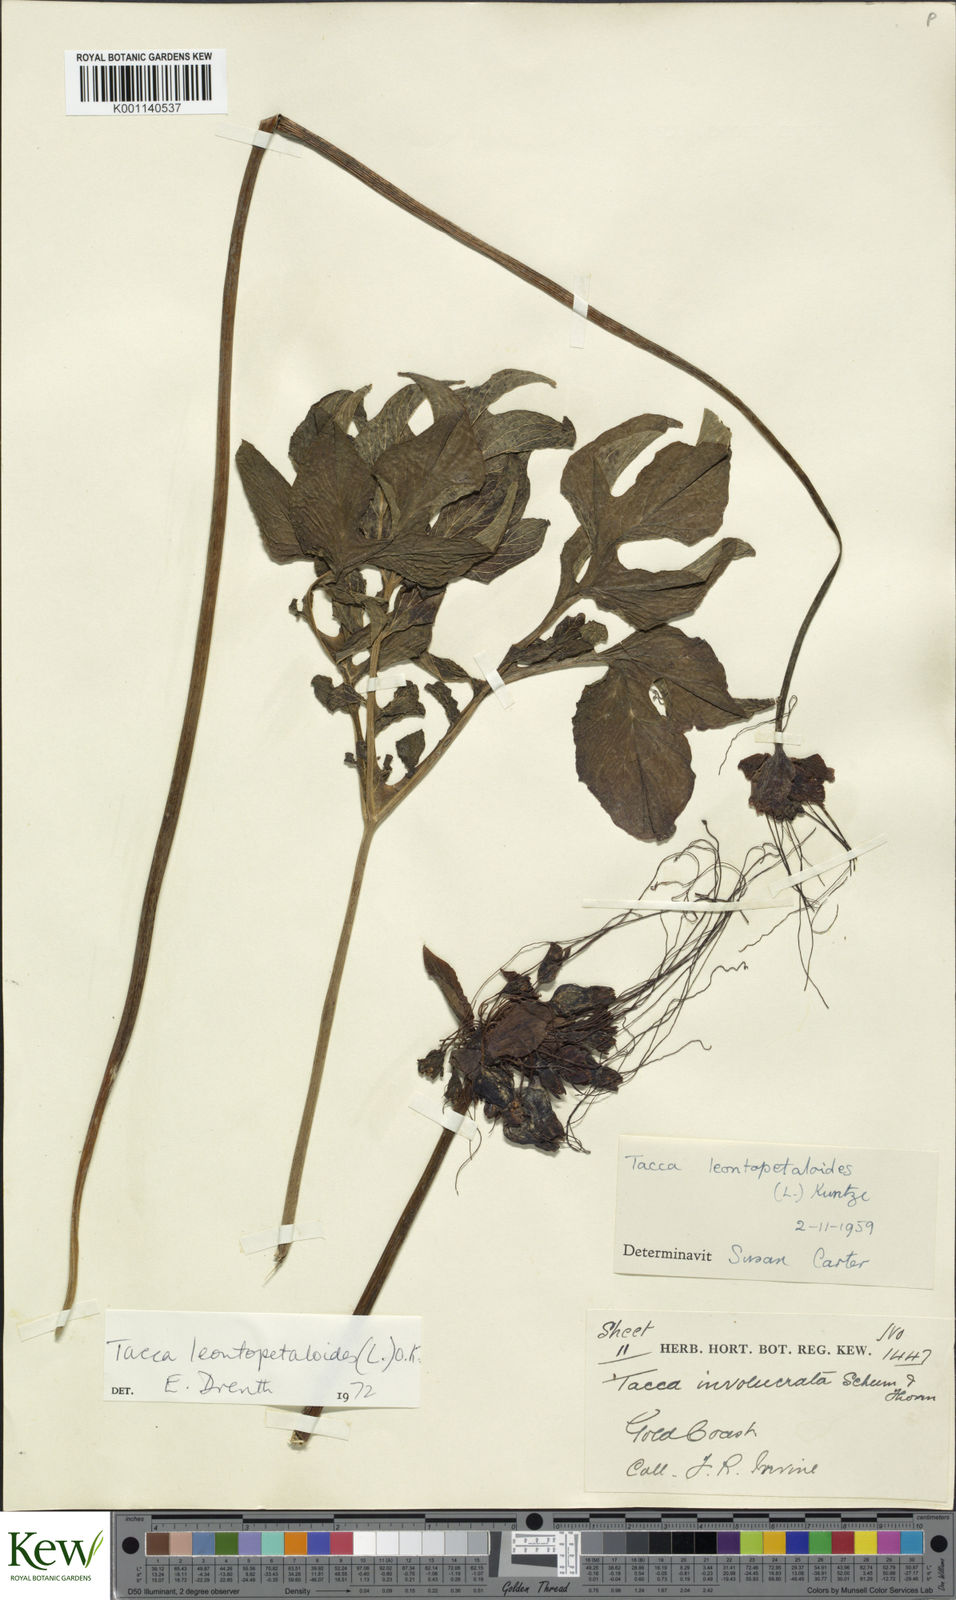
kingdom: Plantae
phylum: Tracheophyta
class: Liliopsida
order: Dioscoreales
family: Dioscoreaceae
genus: Tacca
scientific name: Tacca leontopetaloides
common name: Arrowroot
